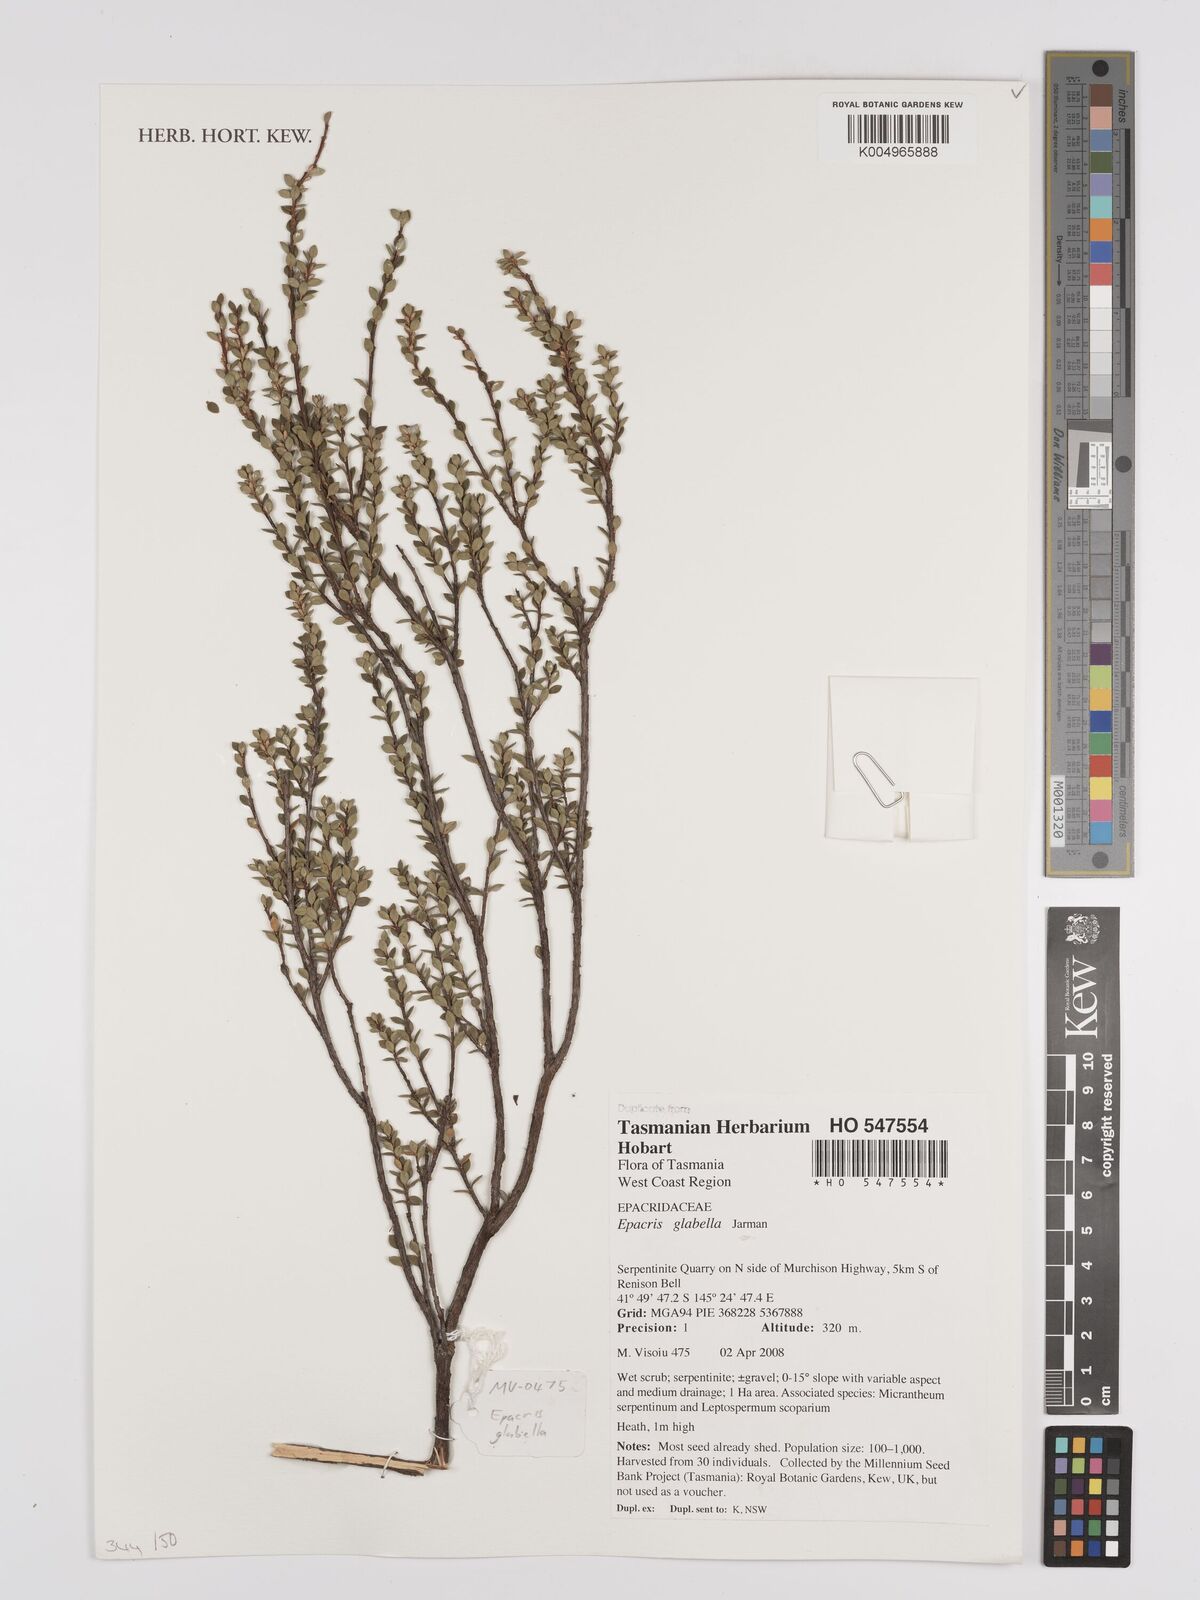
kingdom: Plantae
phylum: Tracheophyta
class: Magnoliopsida
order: Ericales
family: Ericaceae
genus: Epacris
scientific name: Epacris glabella
